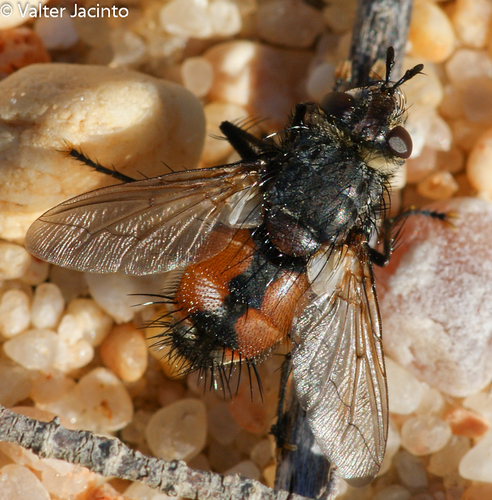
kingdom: Animalia
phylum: Arthropoda
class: Insecta
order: Diptera
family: Tachinidae
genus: Peleteria
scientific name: Peleteria rubescens
